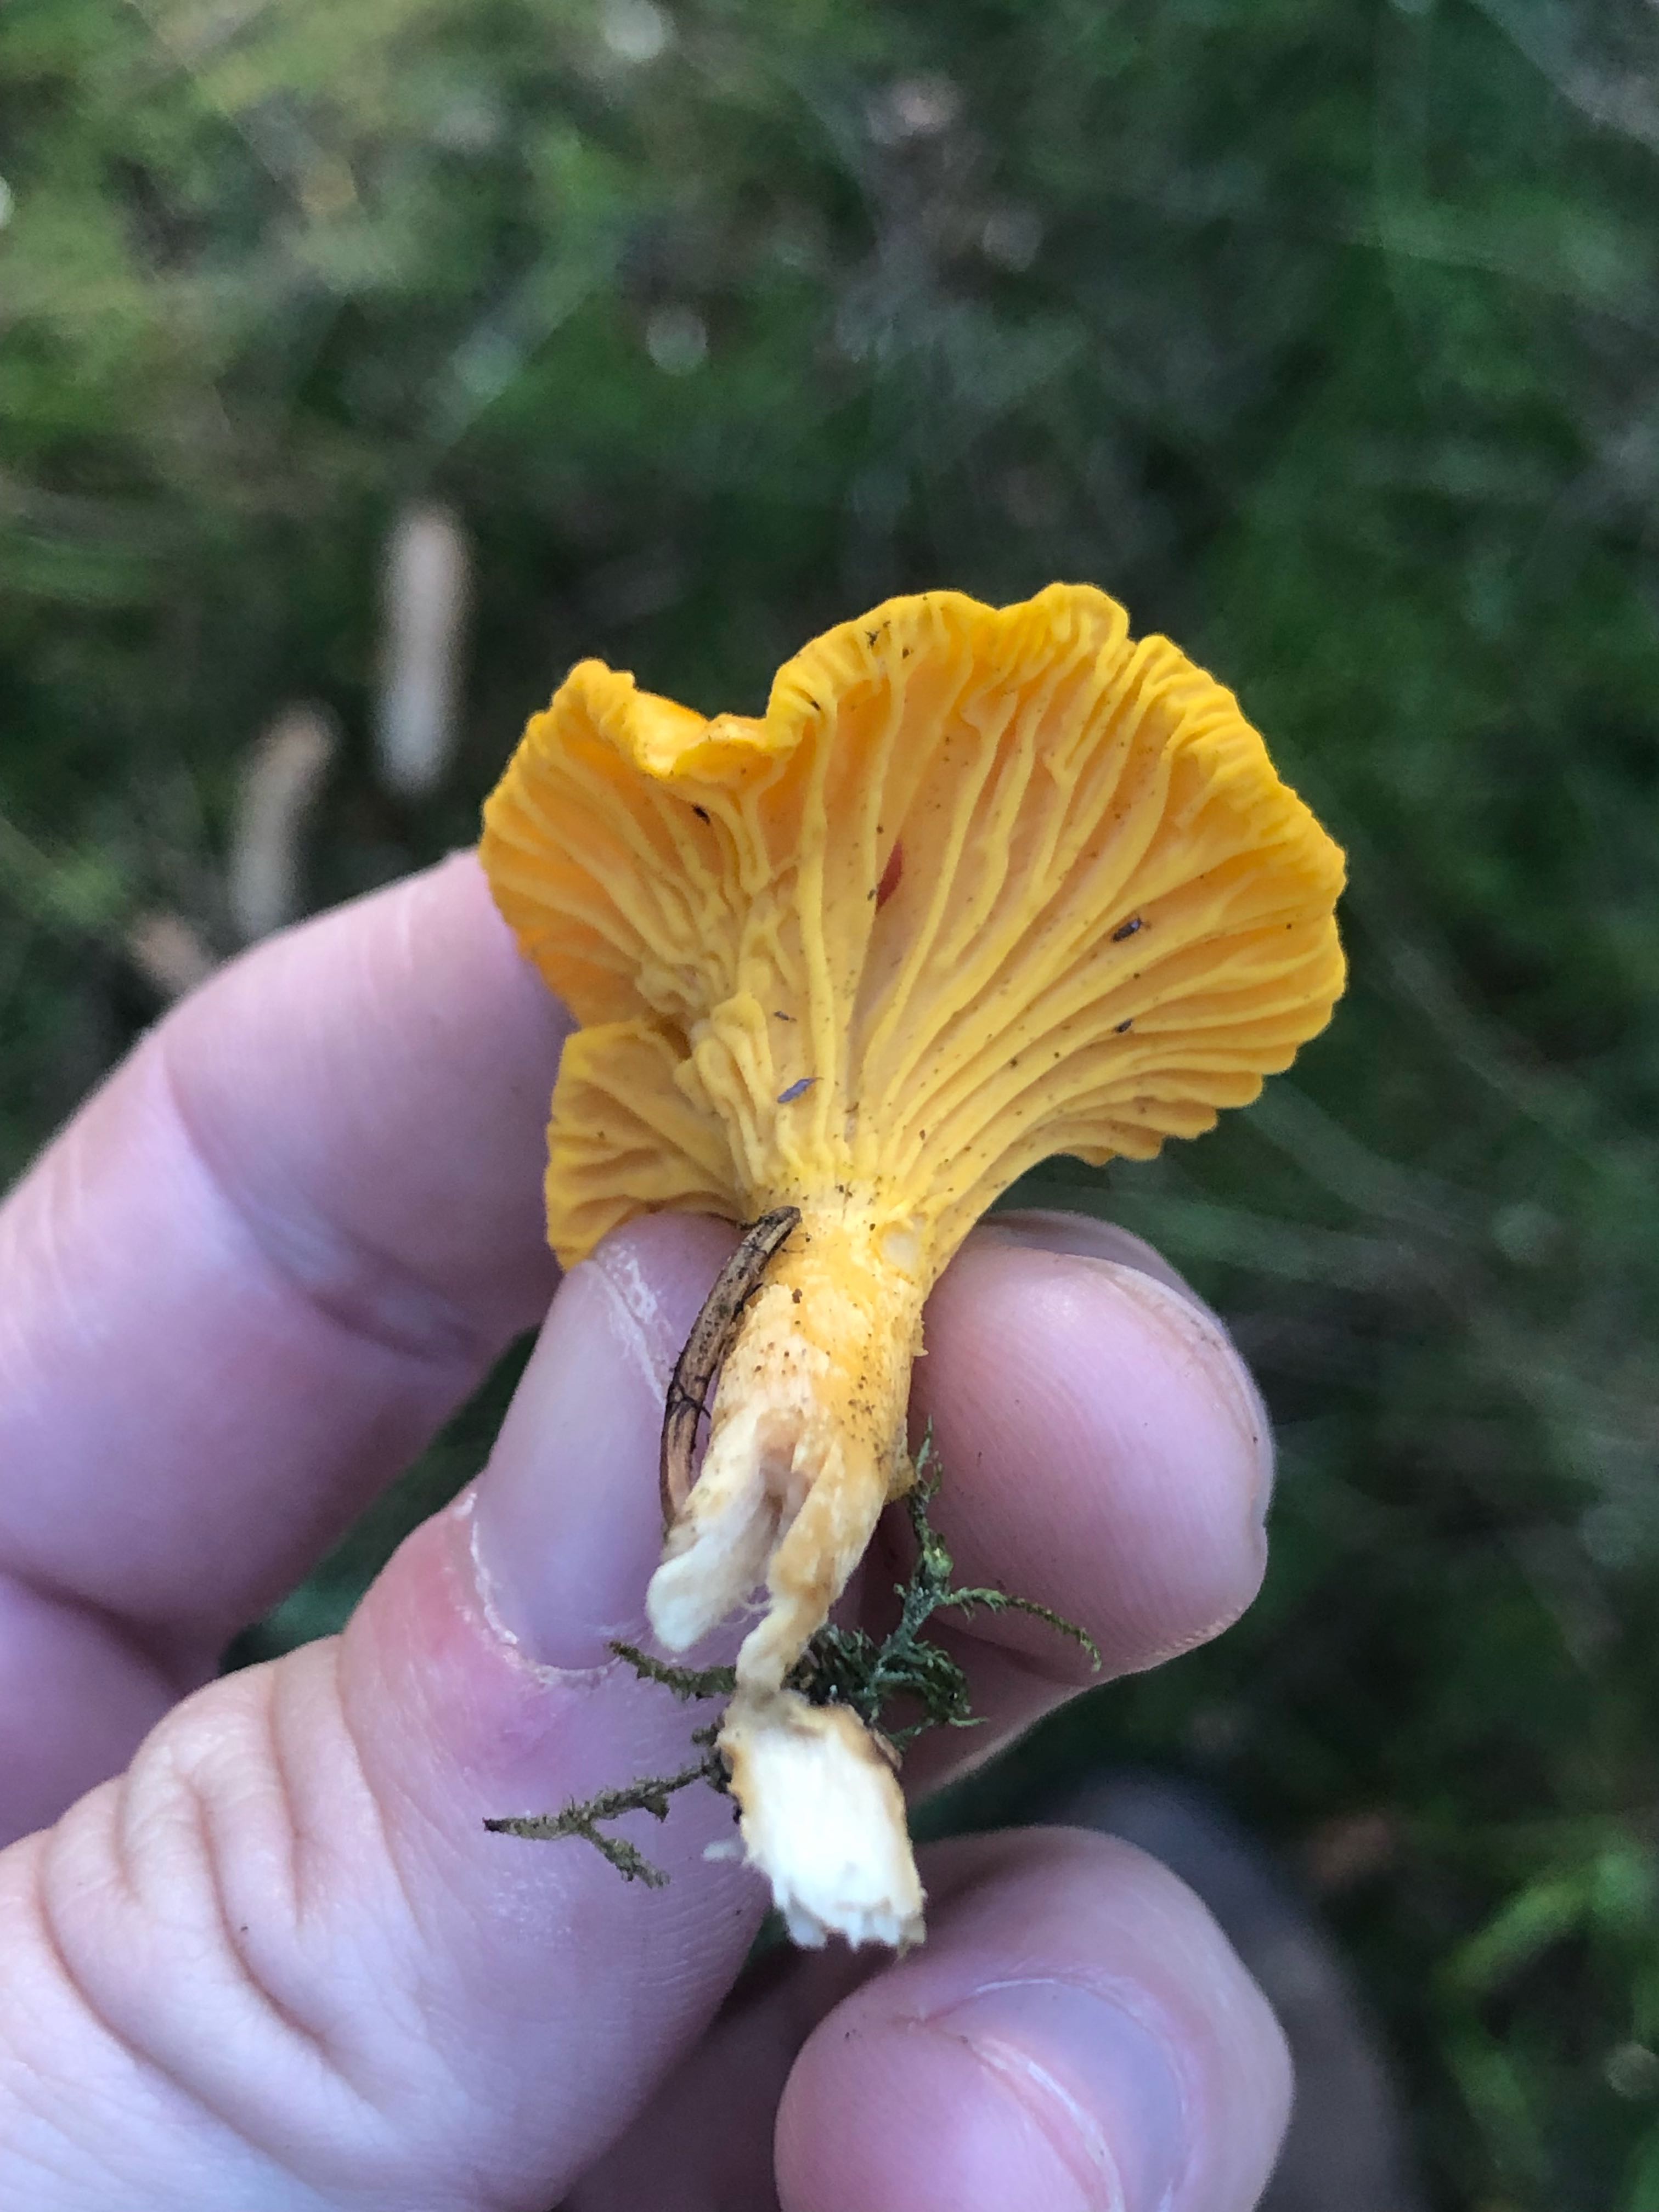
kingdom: Fungi
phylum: Basidiomycota
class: Agaricomycetes
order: Cantharellales
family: Hydnaceae
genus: Cantharellus
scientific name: Cantharellus cibarius
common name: almindelig kantarel
